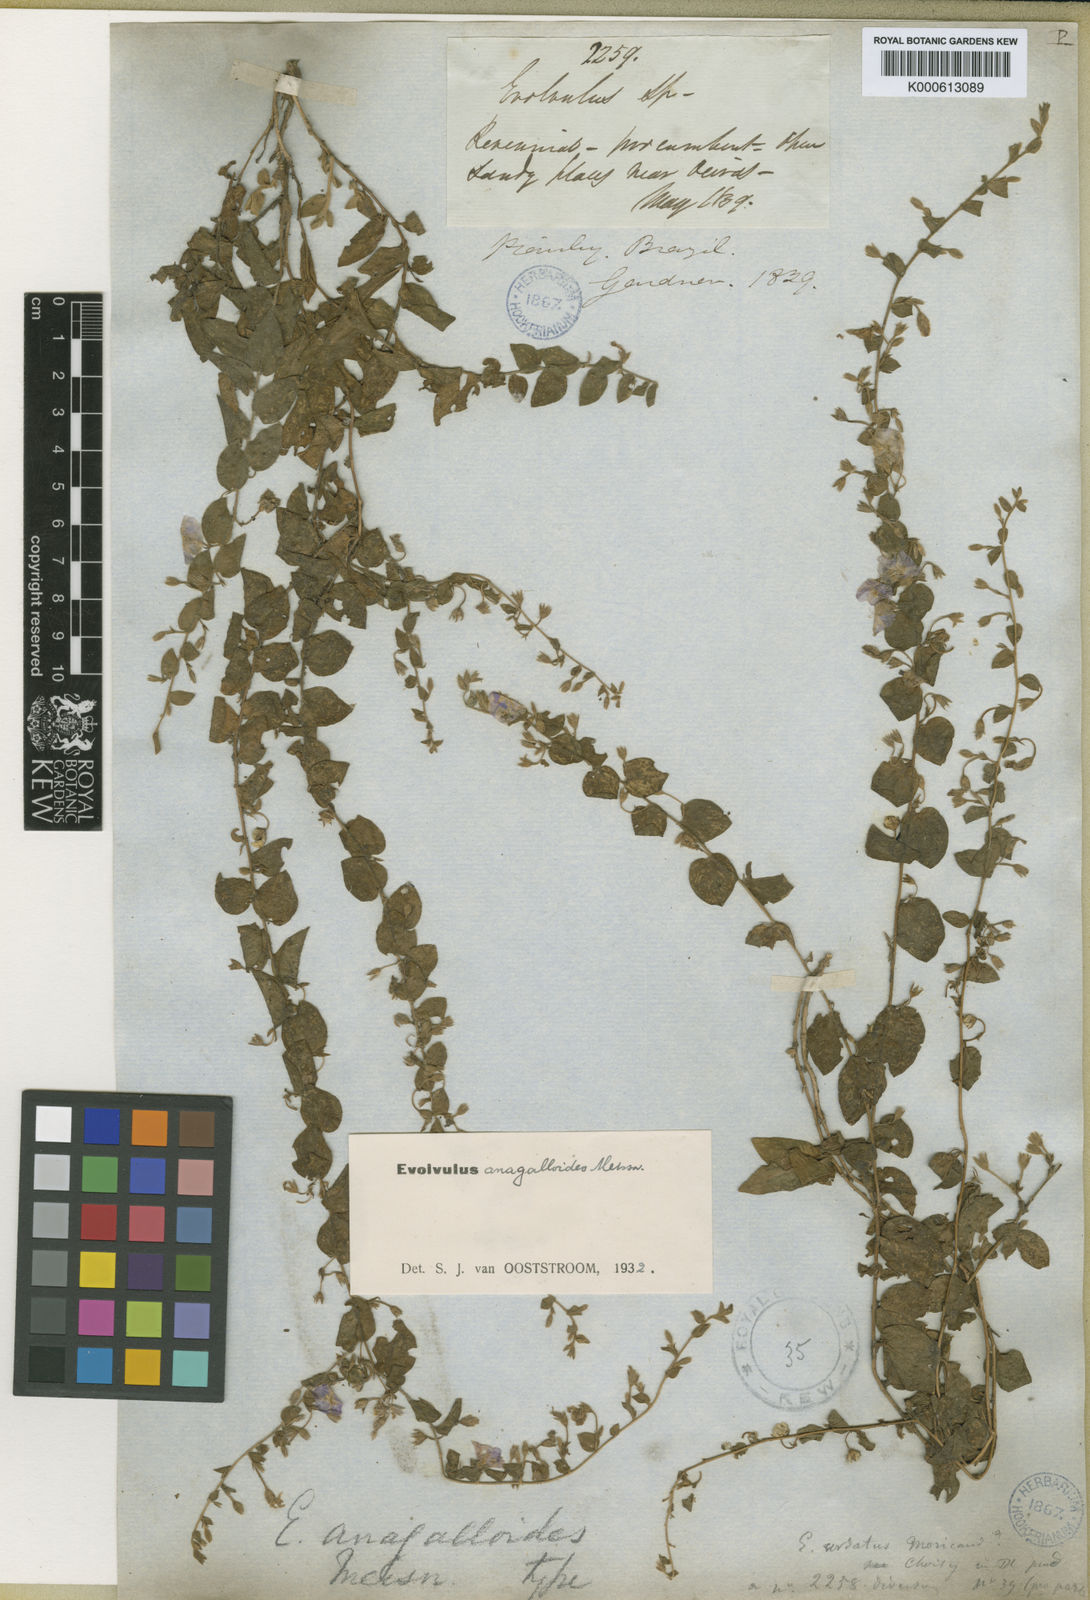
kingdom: Plantae
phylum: Tracheophyta
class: Magnoliopsida
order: Solanales
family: Convolvulaceae
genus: Evolvulus
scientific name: Evolvulus anagalloides
